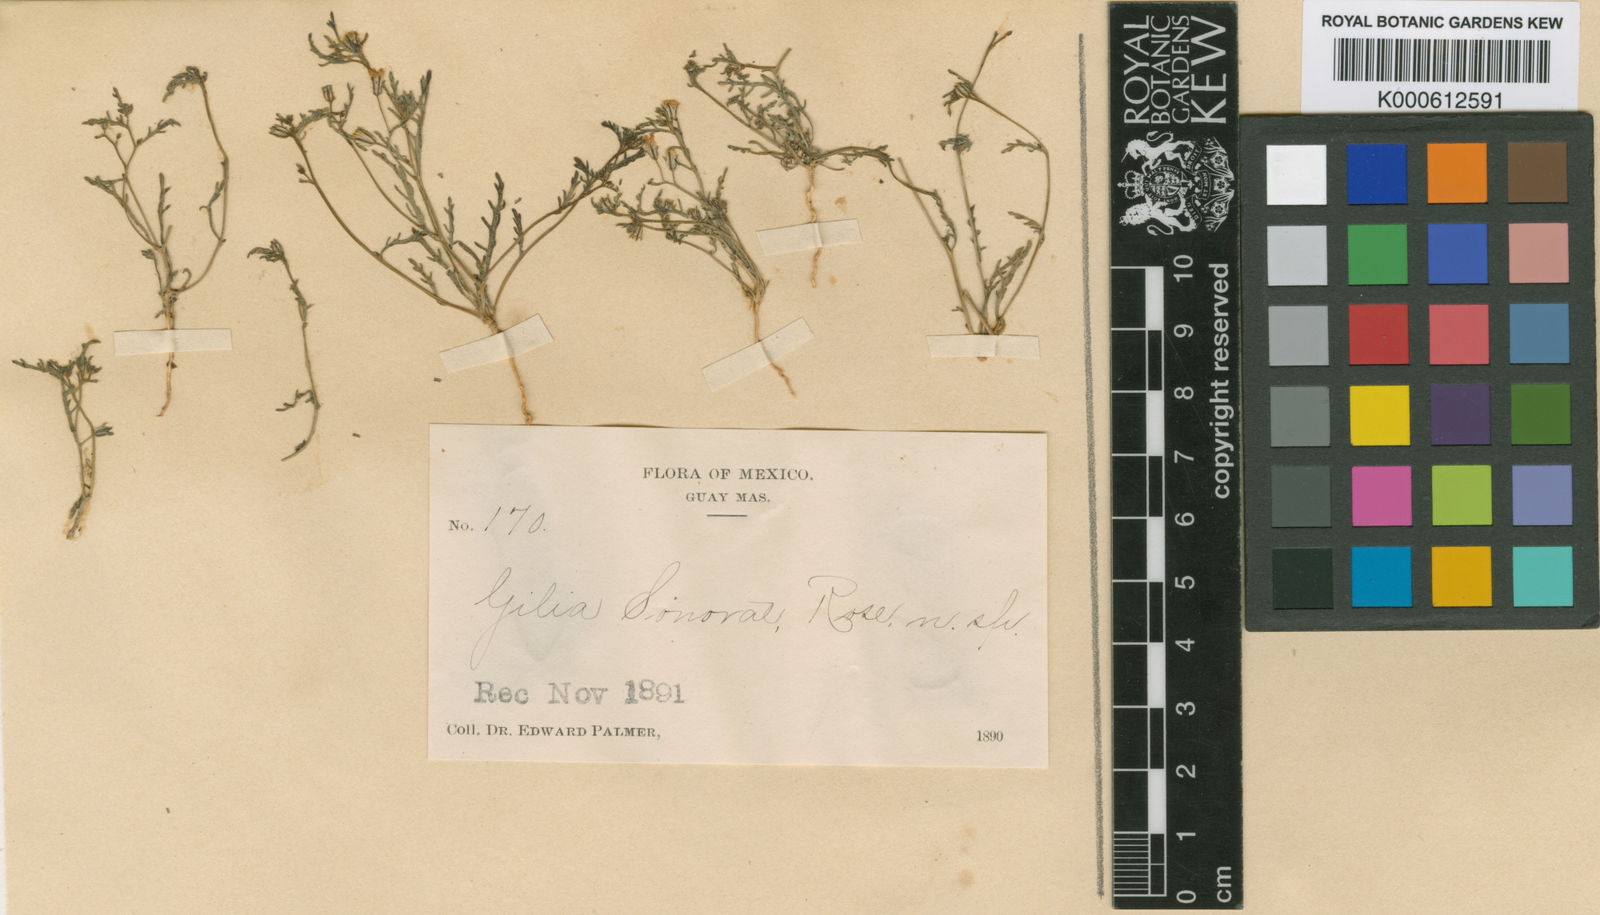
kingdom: Plantae
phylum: Tracheophyta
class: Magnoliopsida
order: Ericales
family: Polemoniaceae
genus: Dayia
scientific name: Dayia sonorae
